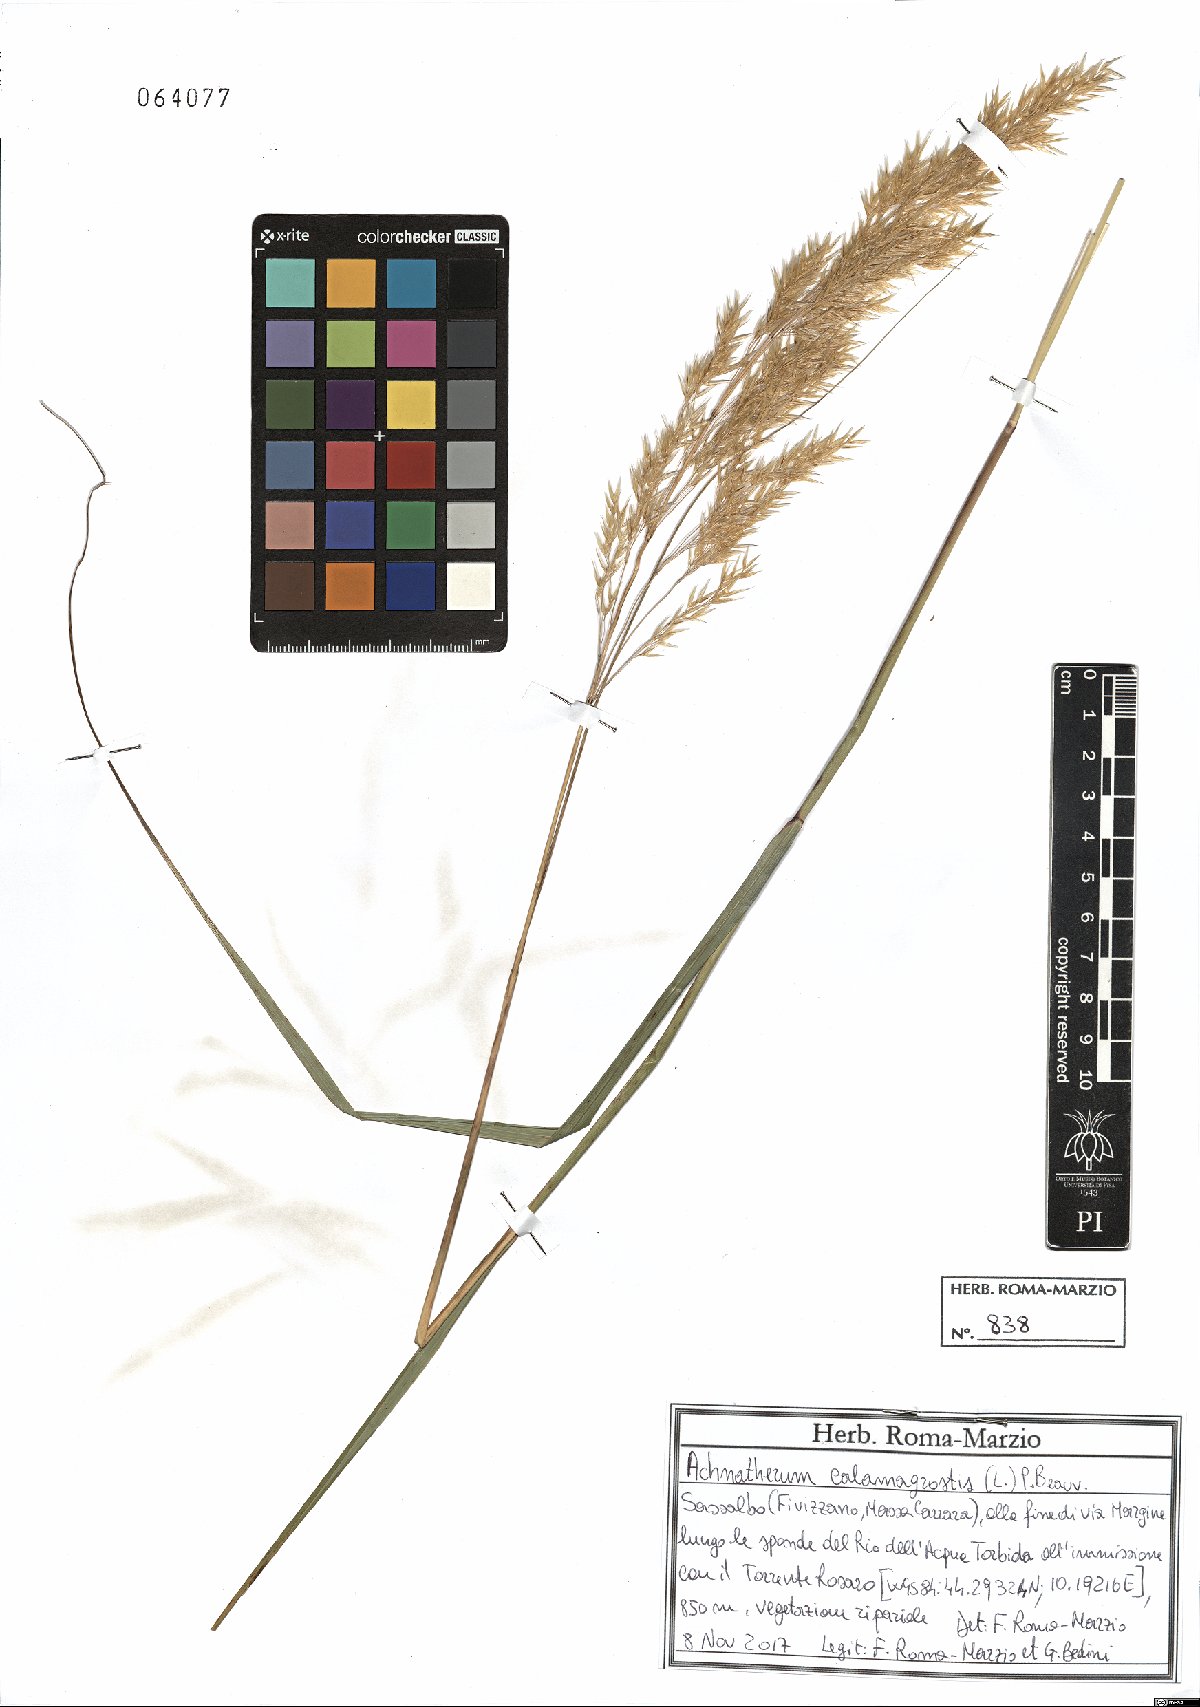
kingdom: Plantae
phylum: Tracheophyta
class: Liliopsida
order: Poales
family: Poaceae
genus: Achnatherum
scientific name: Achnatherum calamagrostis
